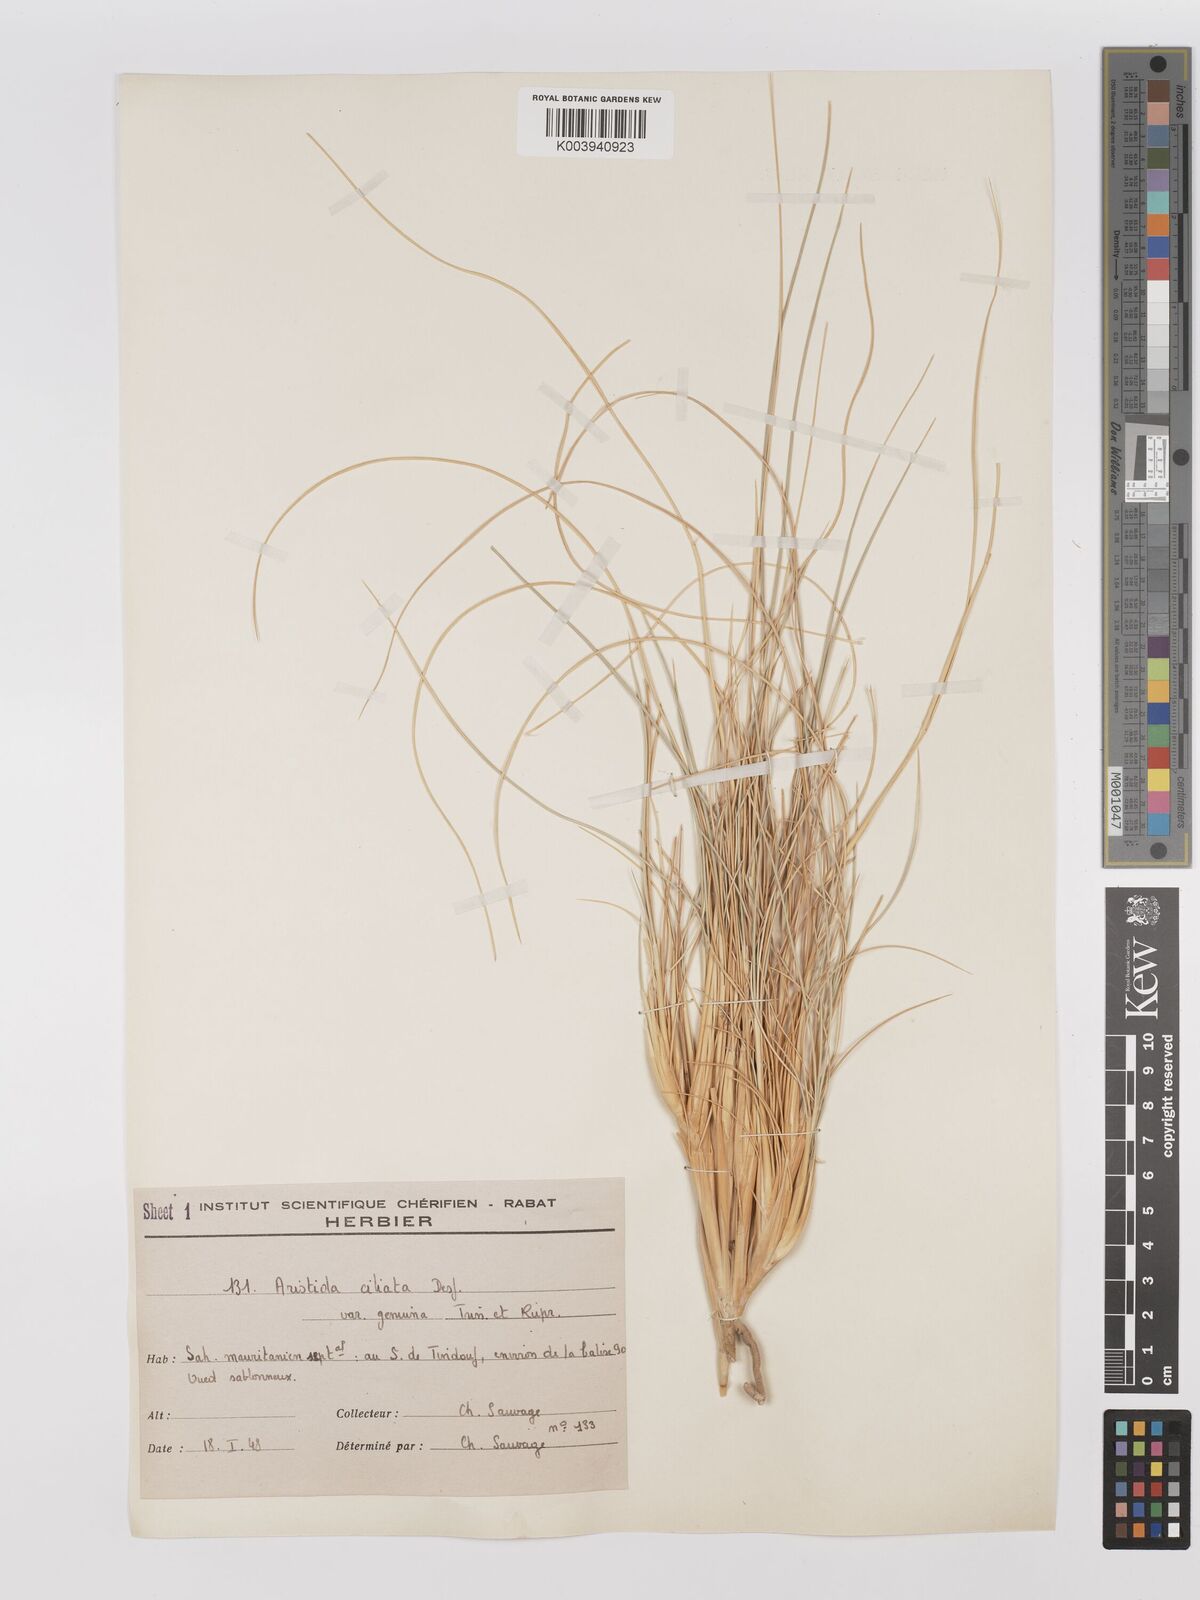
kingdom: Plantae
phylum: Tracheophyta
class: Liliopsida
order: Poales
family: Poaceae
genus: Stipagrostis
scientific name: Stipagrostis ciliata
